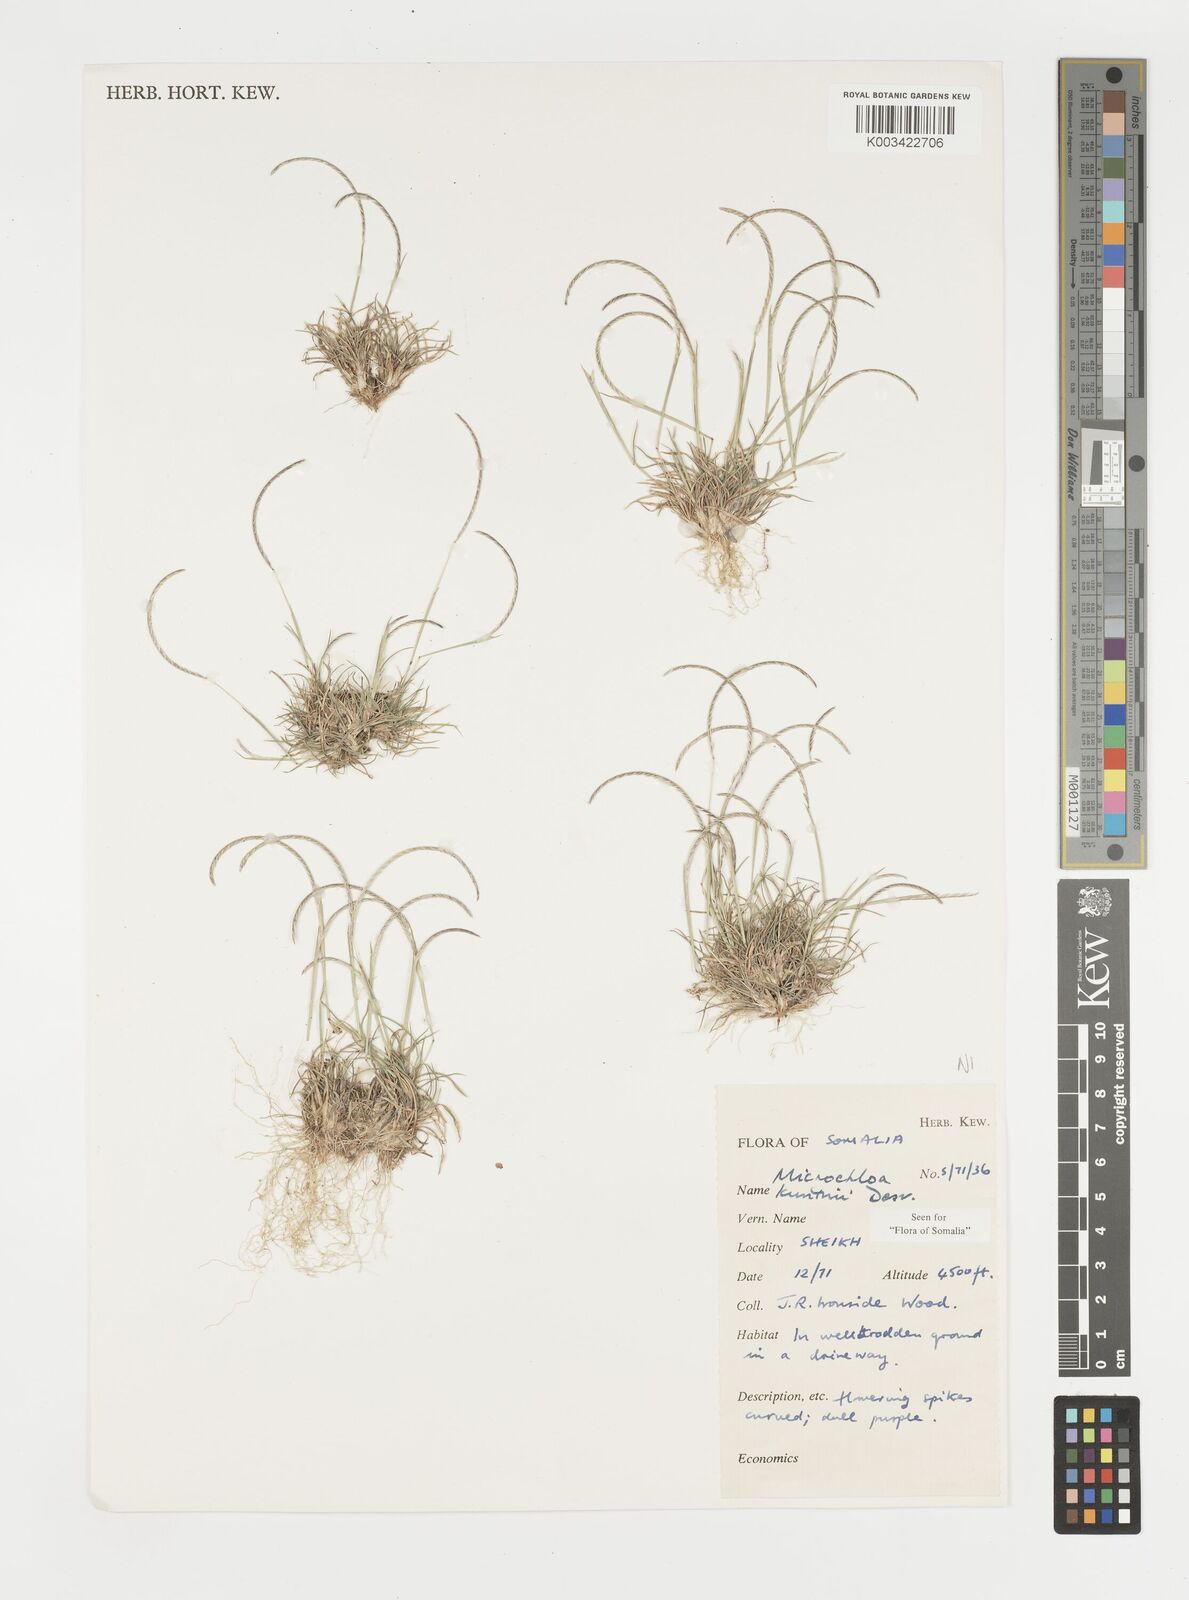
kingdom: Plantae
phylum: Tracheophyta
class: Liliopsida
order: Poales
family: Poaceae
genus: Microchloa
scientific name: Microchloa kunthii
